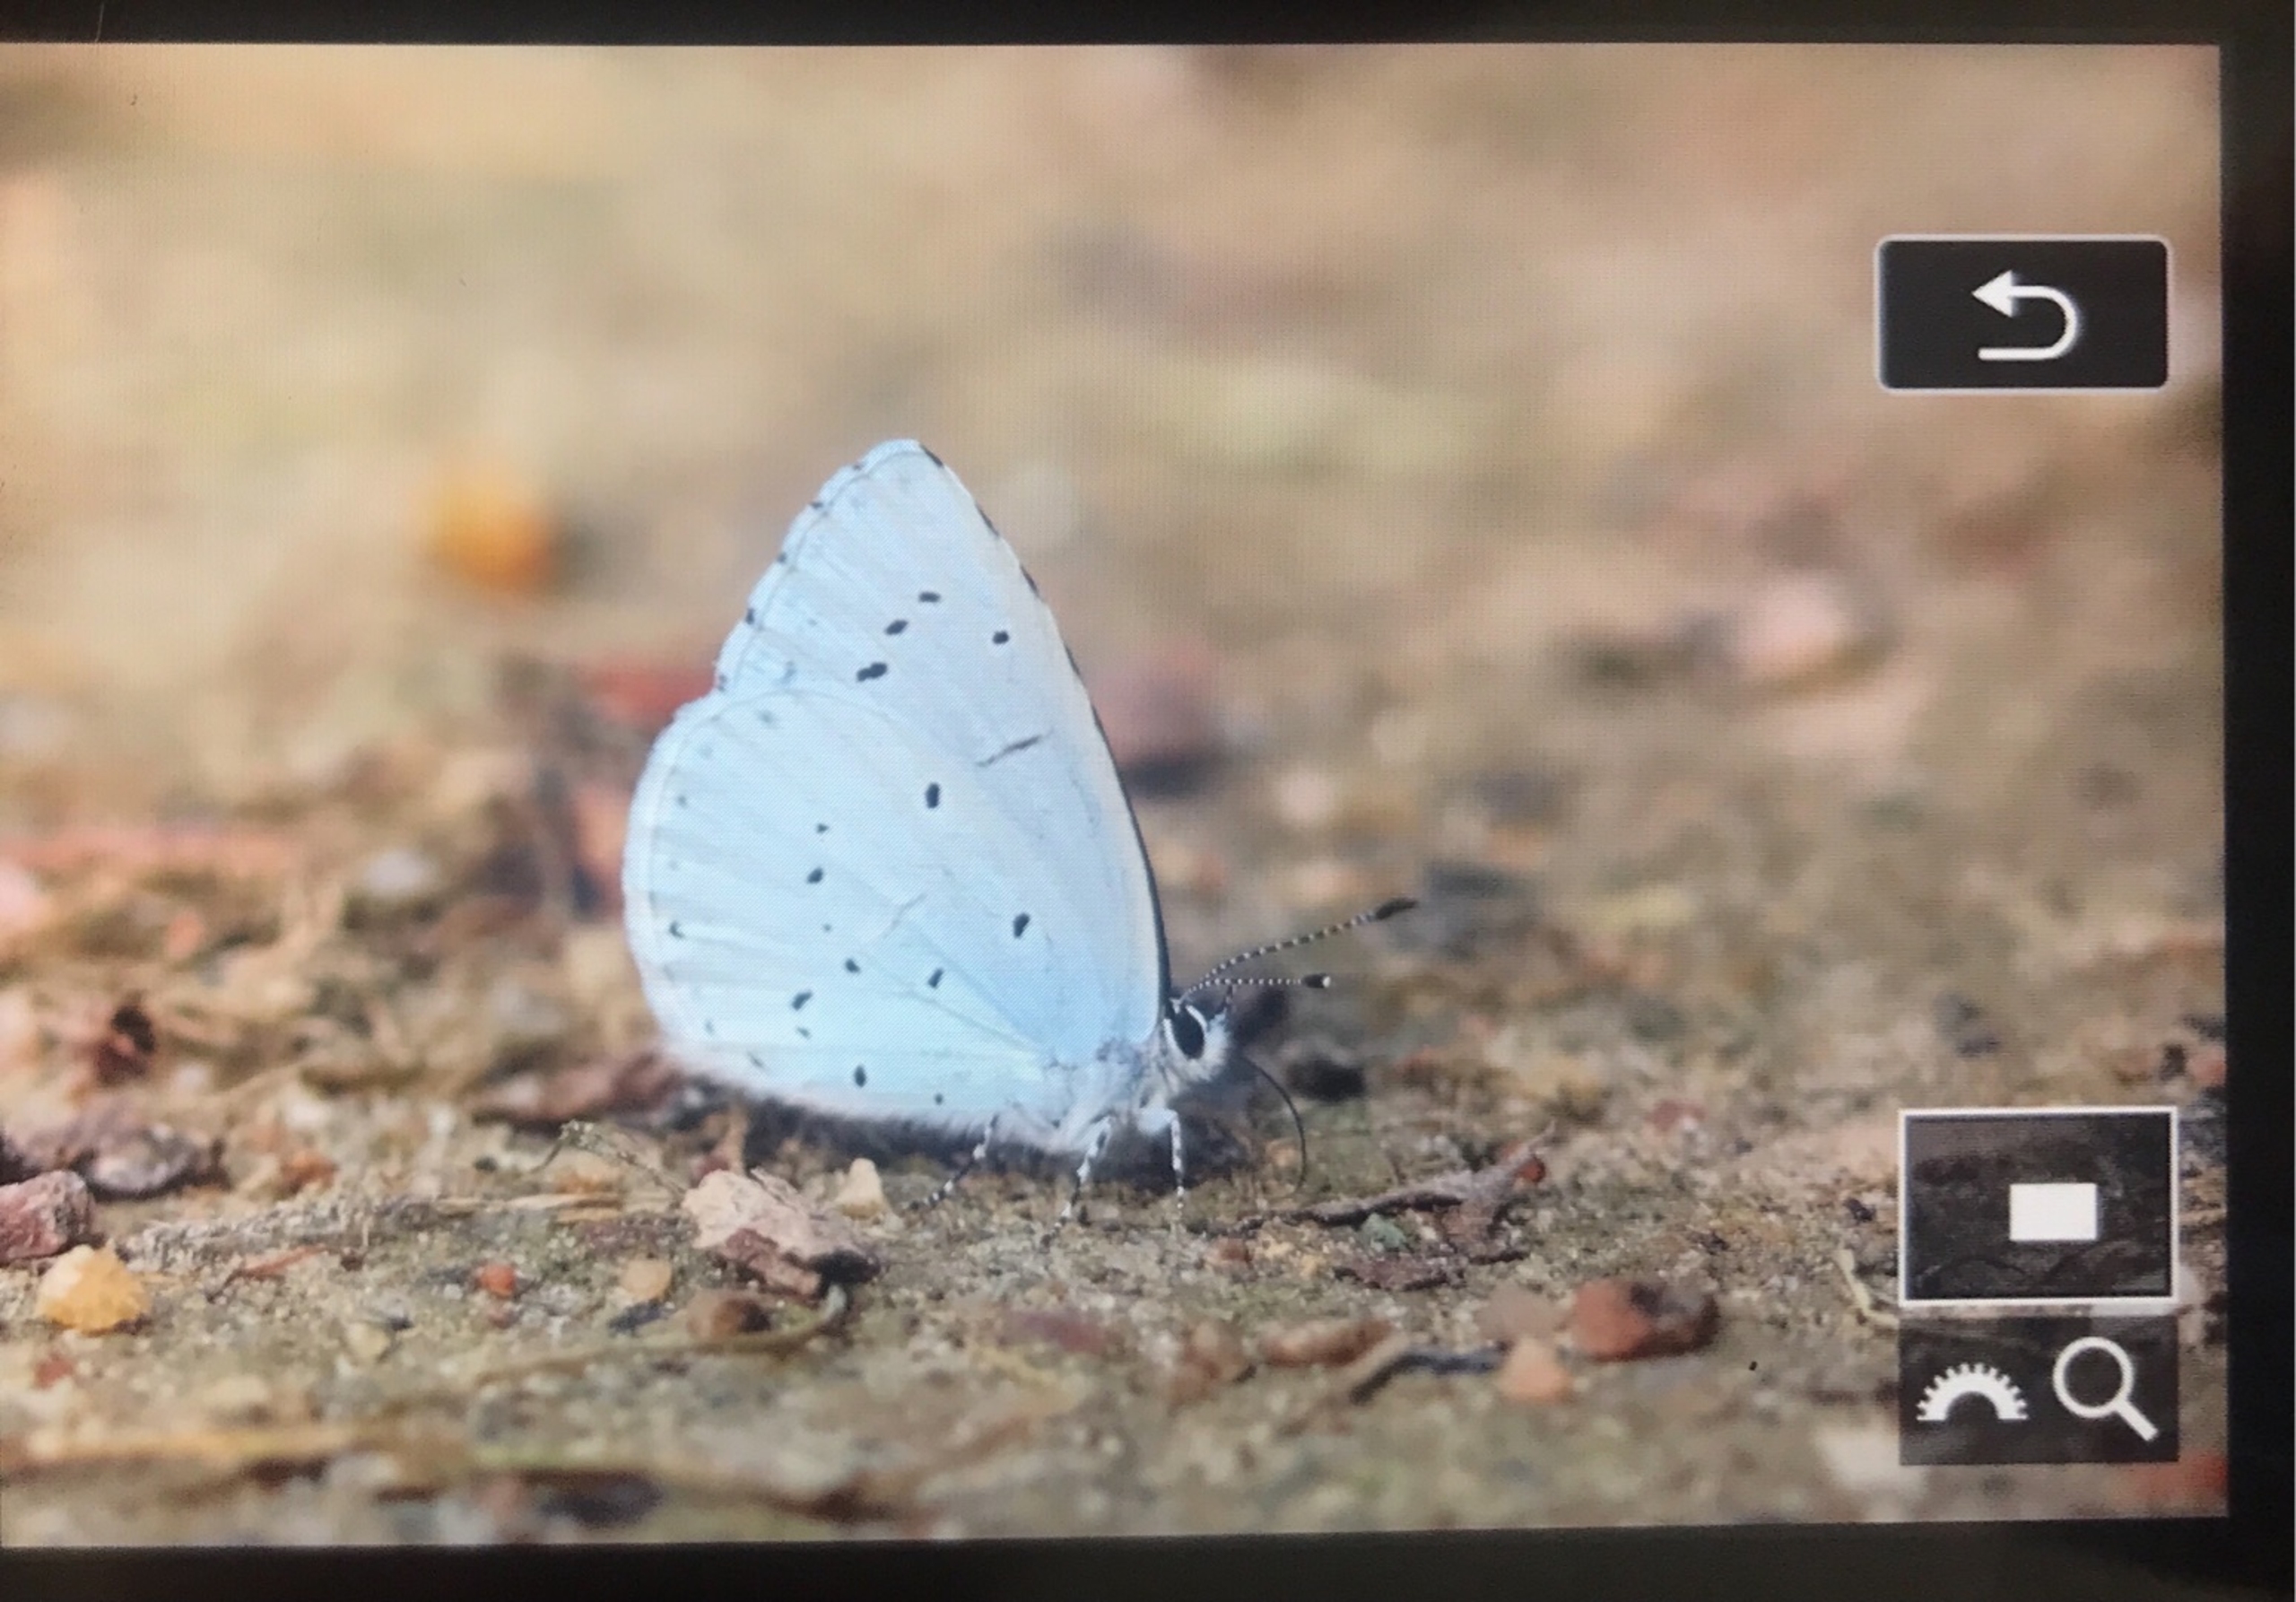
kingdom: Animalia
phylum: Arthropoda
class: Insecta
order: Lepidoptera
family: Lycaenidae
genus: Celastrina
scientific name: Celastrina argiolus
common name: Skovblåfugl
